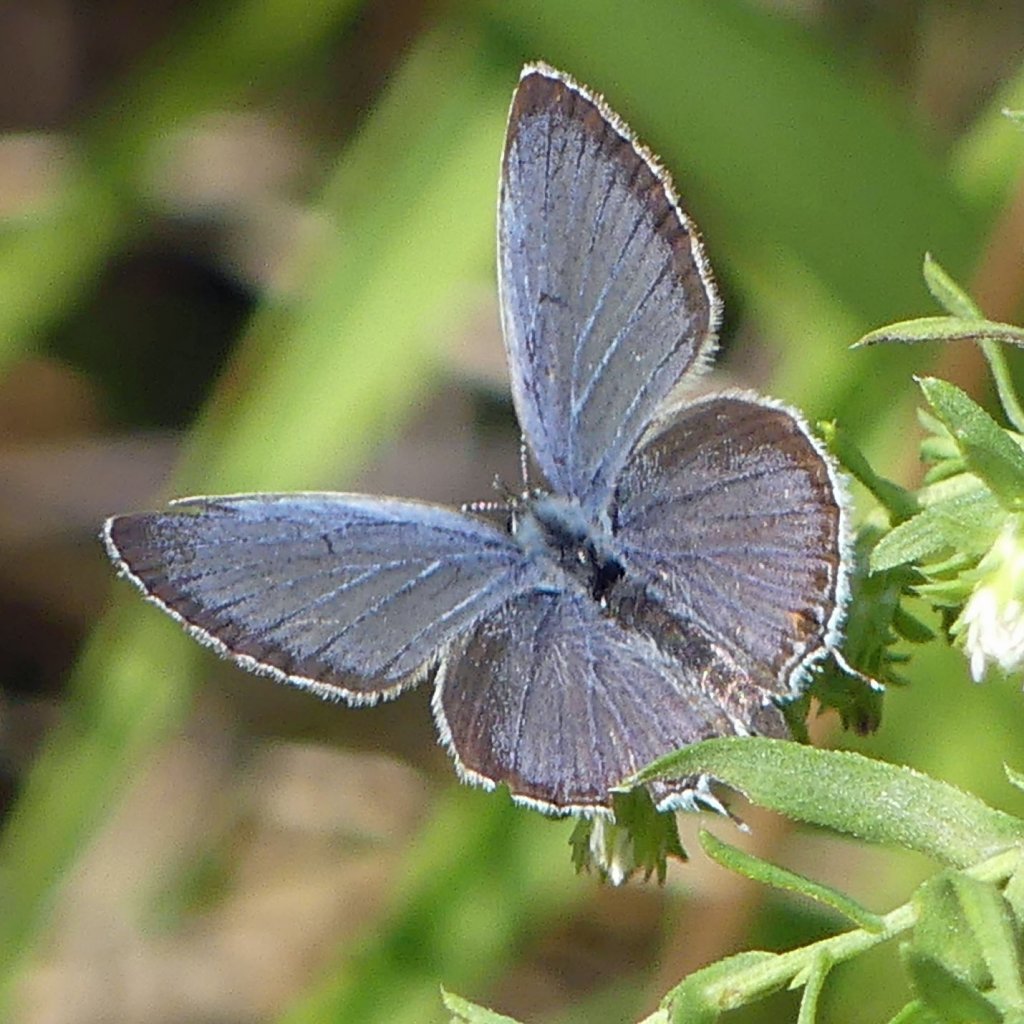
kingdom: Animalia
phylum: Arthropoda
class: Insecta
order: Lepidoptera
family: Lycaenidae
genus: Elkalyce
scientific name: Elkalyce comyntas
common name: Eastern Tailed-Blue
